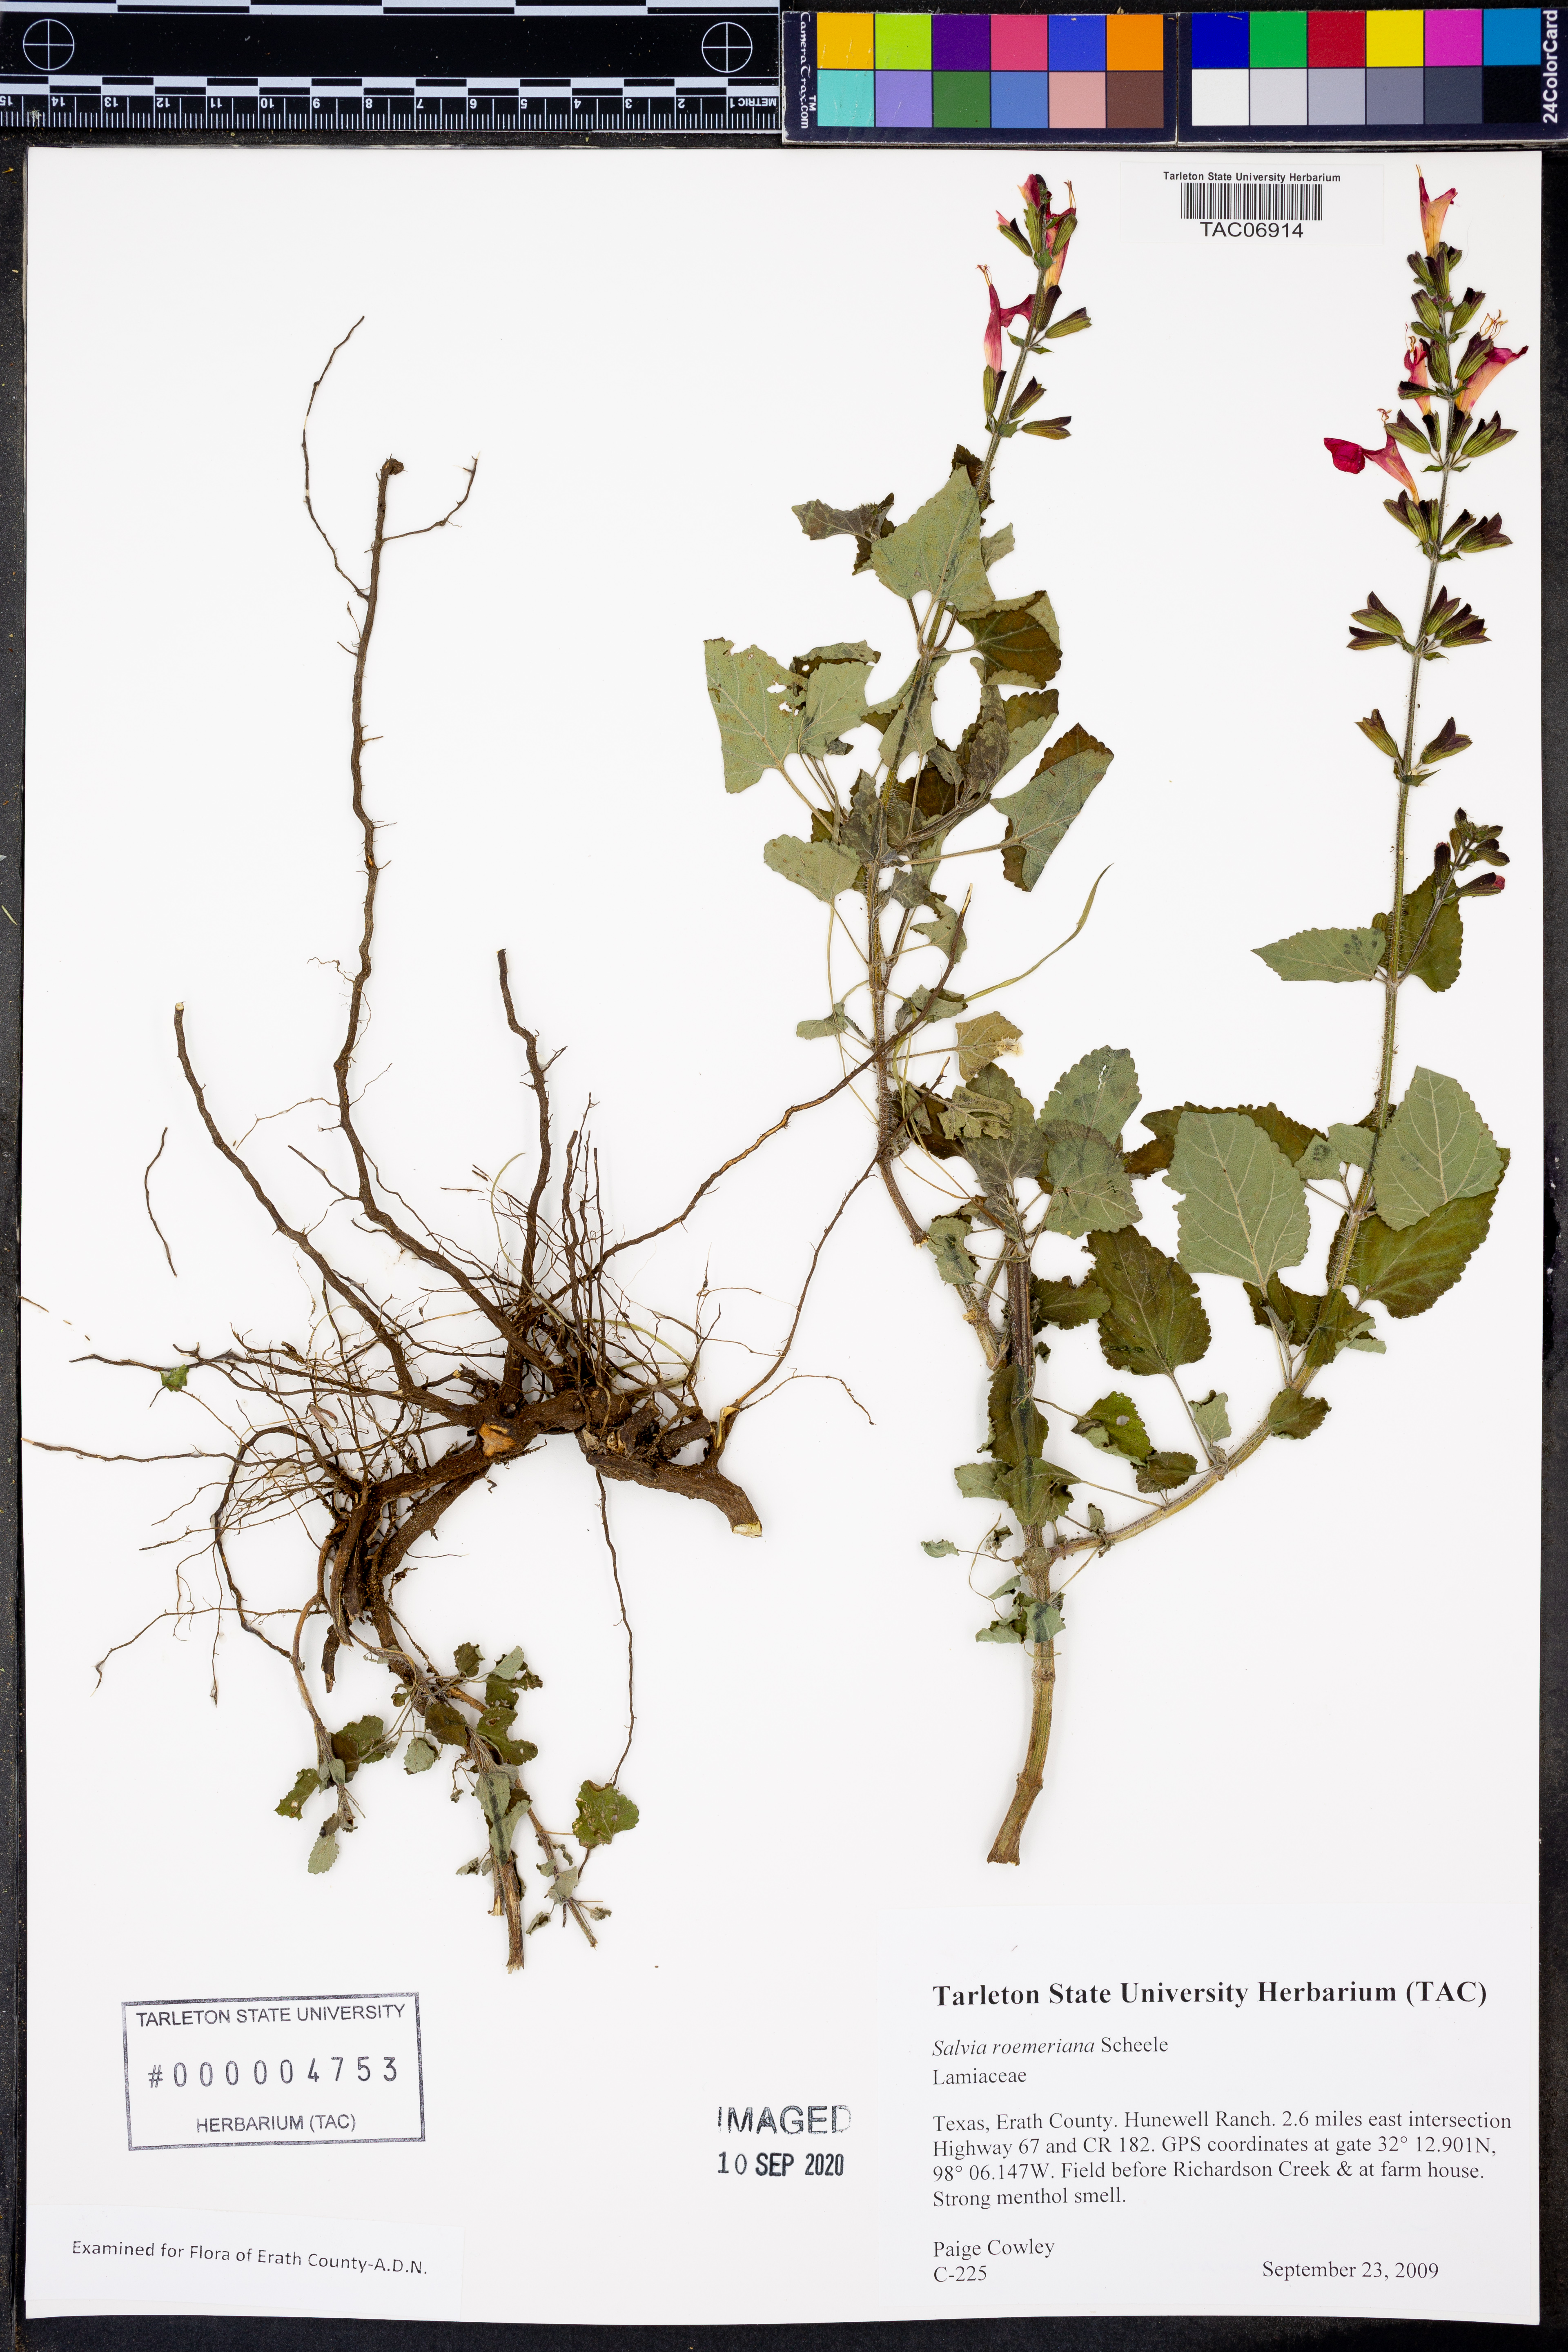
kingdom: Plantae
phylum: Tracheophyta
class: Magnoliopsida
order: Lamiales
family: Lamiaceae
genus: Salvia
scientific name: Salvia roemeriana
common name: Cedar sage
